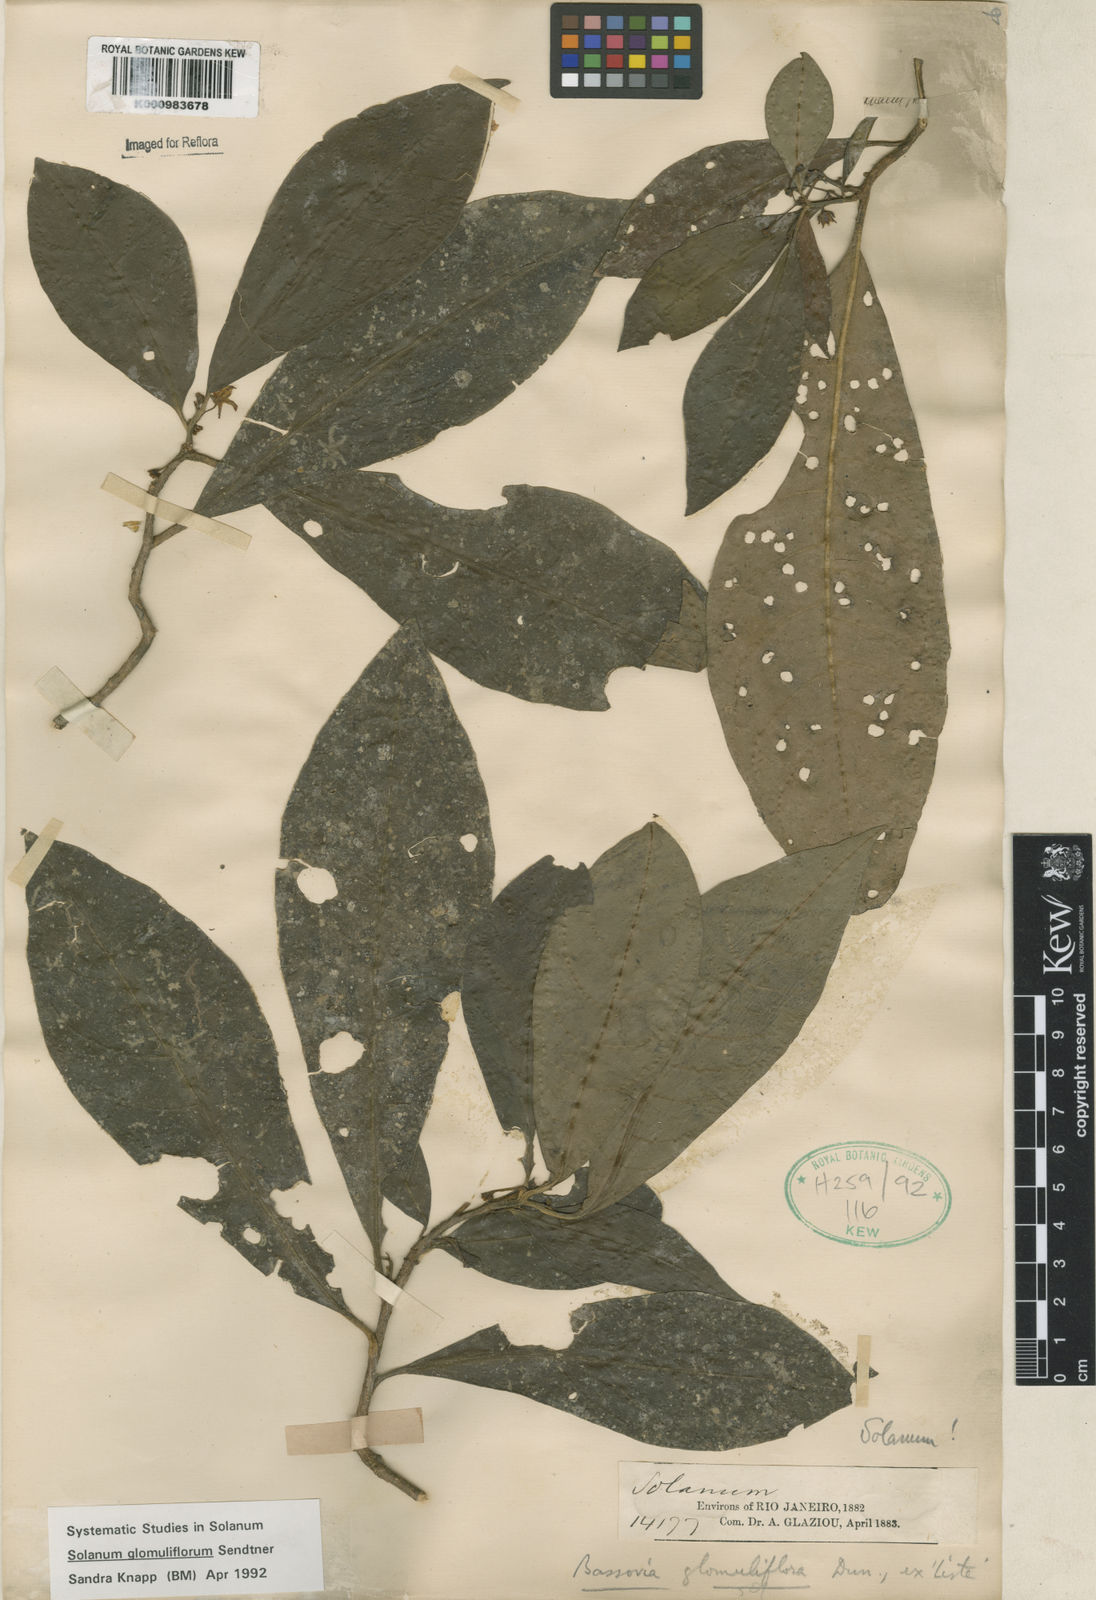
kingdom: Plantae
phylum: Tracheophyta
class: Magnoliopsida
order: Solanales
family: Solanaceae
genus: Solanum
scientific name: Solanum glomuliflorum
